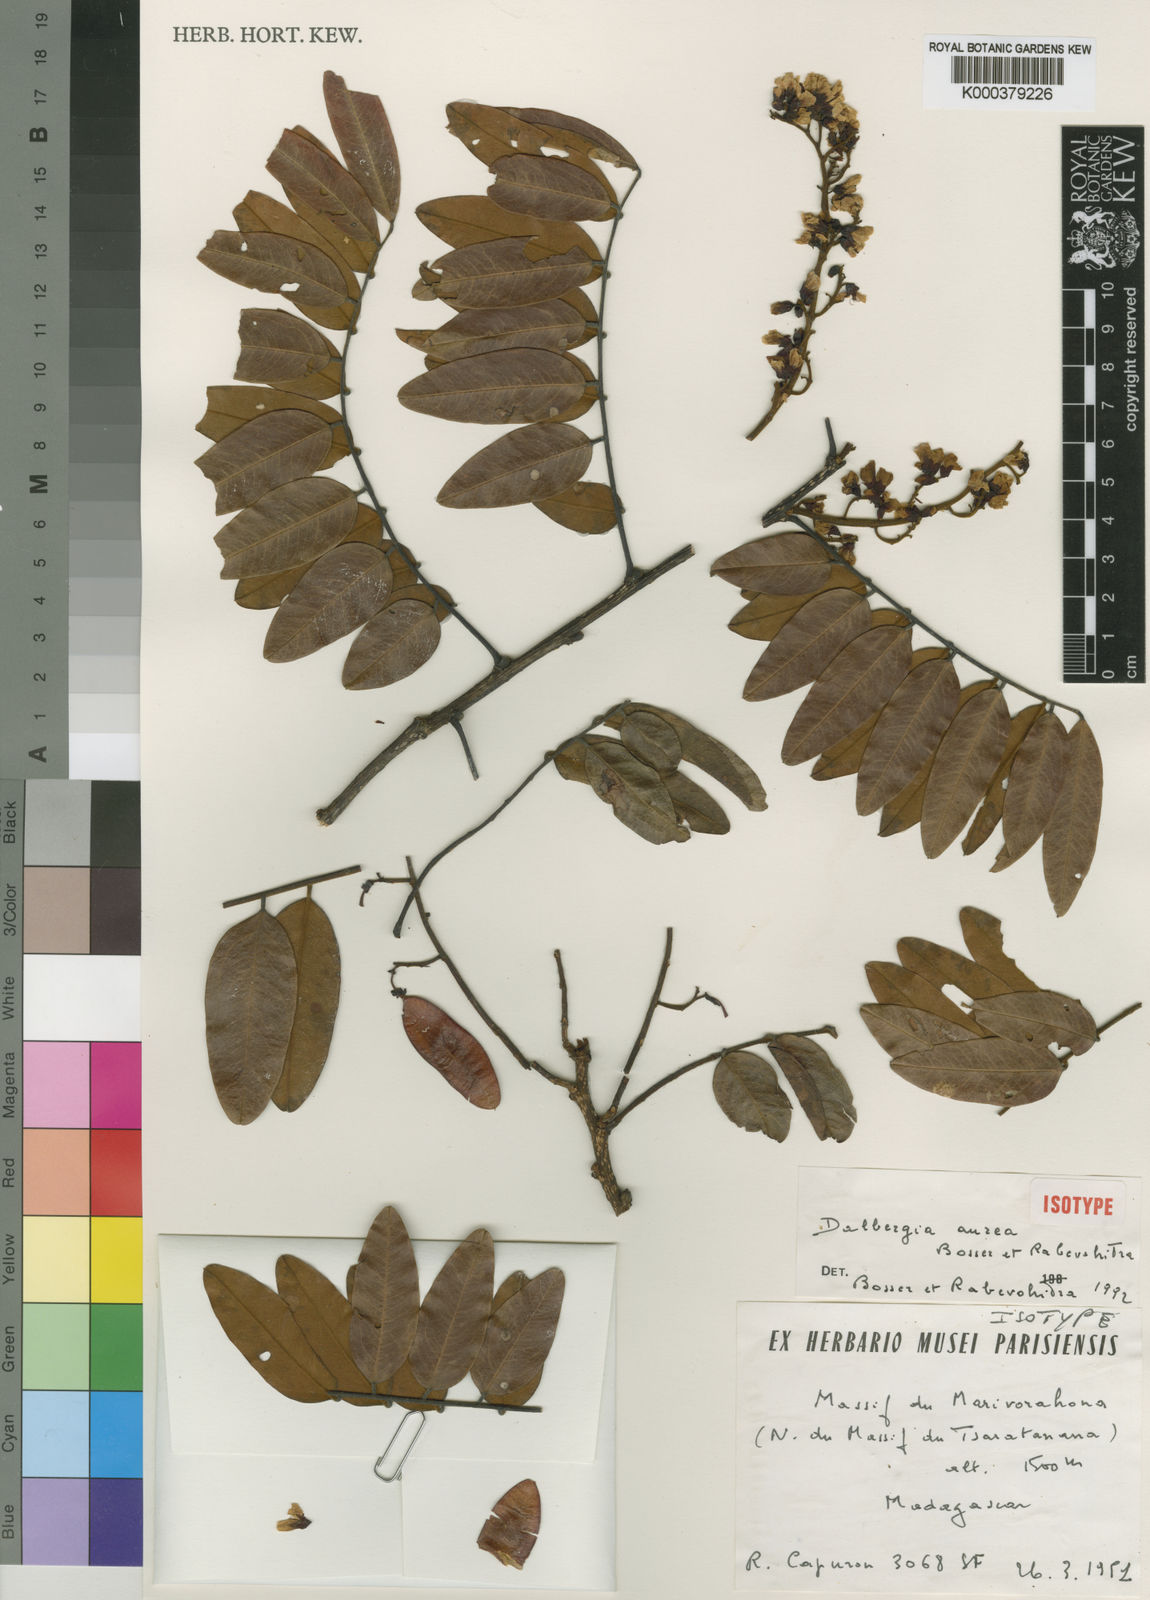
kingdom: Plantae
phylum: Tracheophyta
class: Magnoliopsida
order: Fabales
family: Fabaceae
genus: Dalbergia
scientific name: Dalbergia aurea
